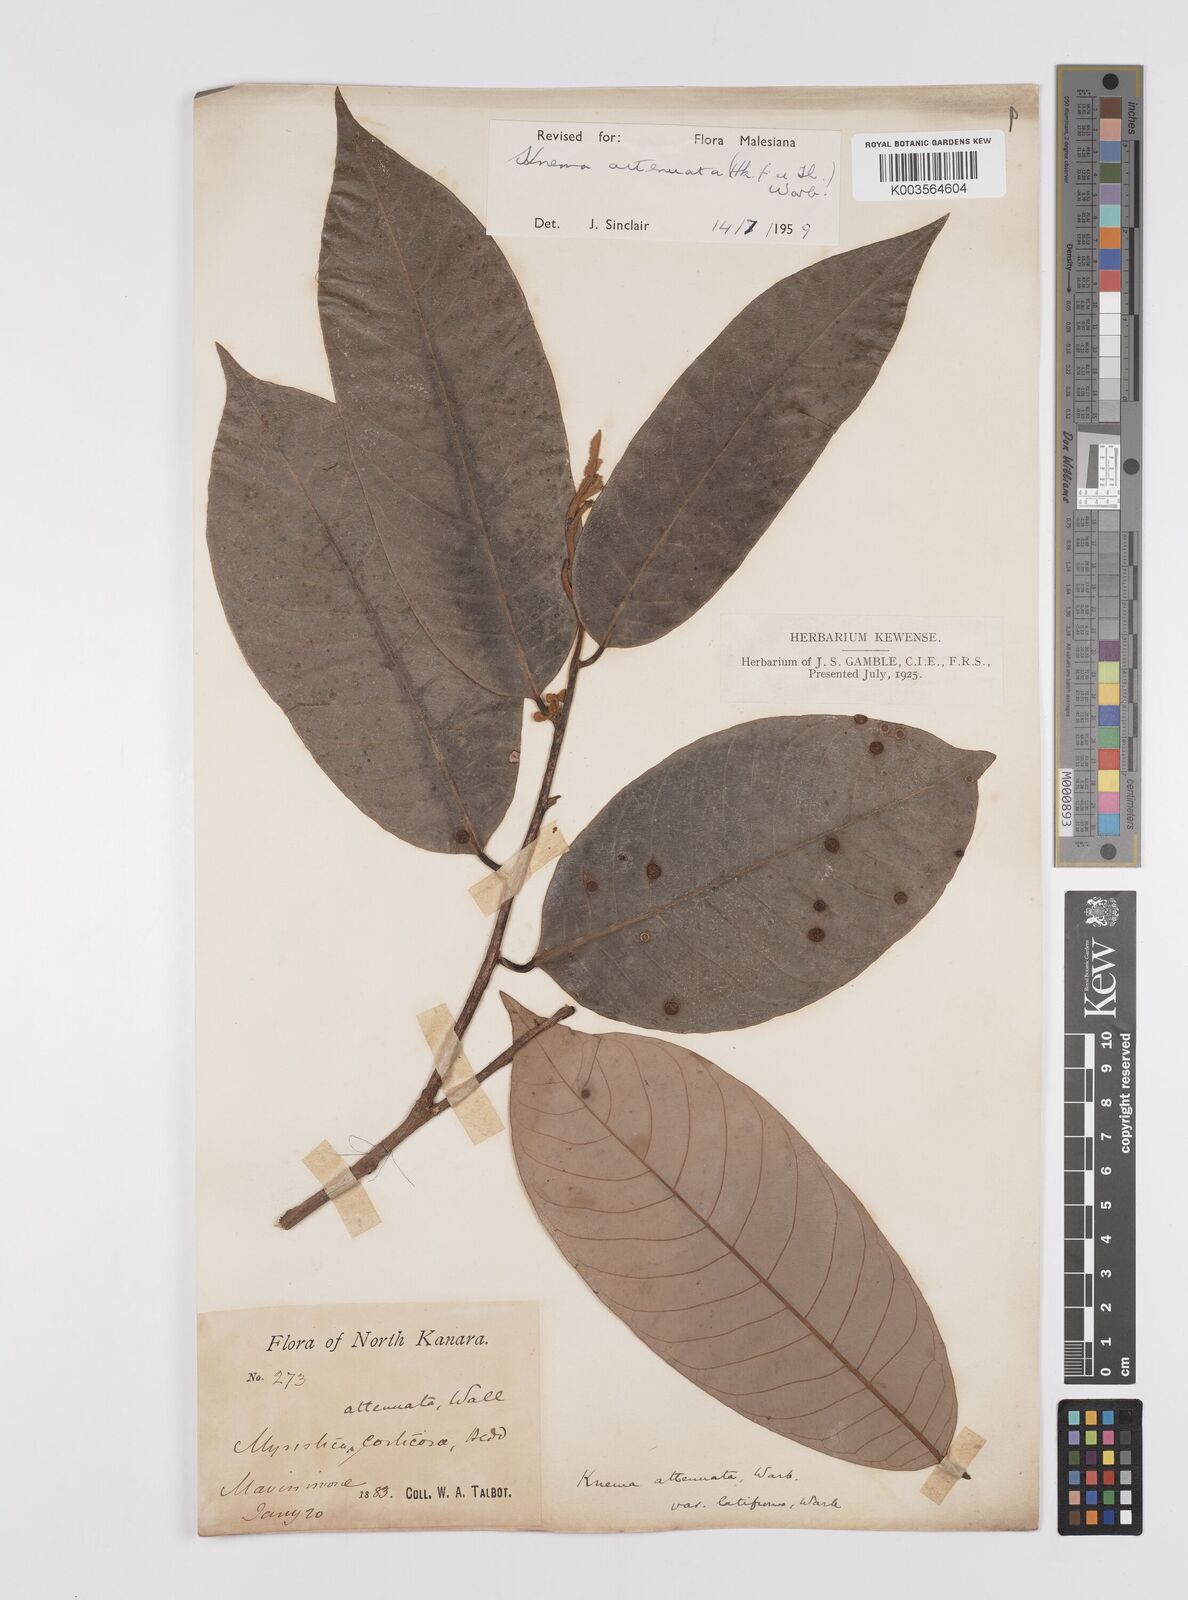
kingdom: Plantae
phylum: Tracheophyta
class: Magnoliopsida
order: Magnoliales
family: Myristicaceae
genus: Knema
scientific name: Knema attenuata
